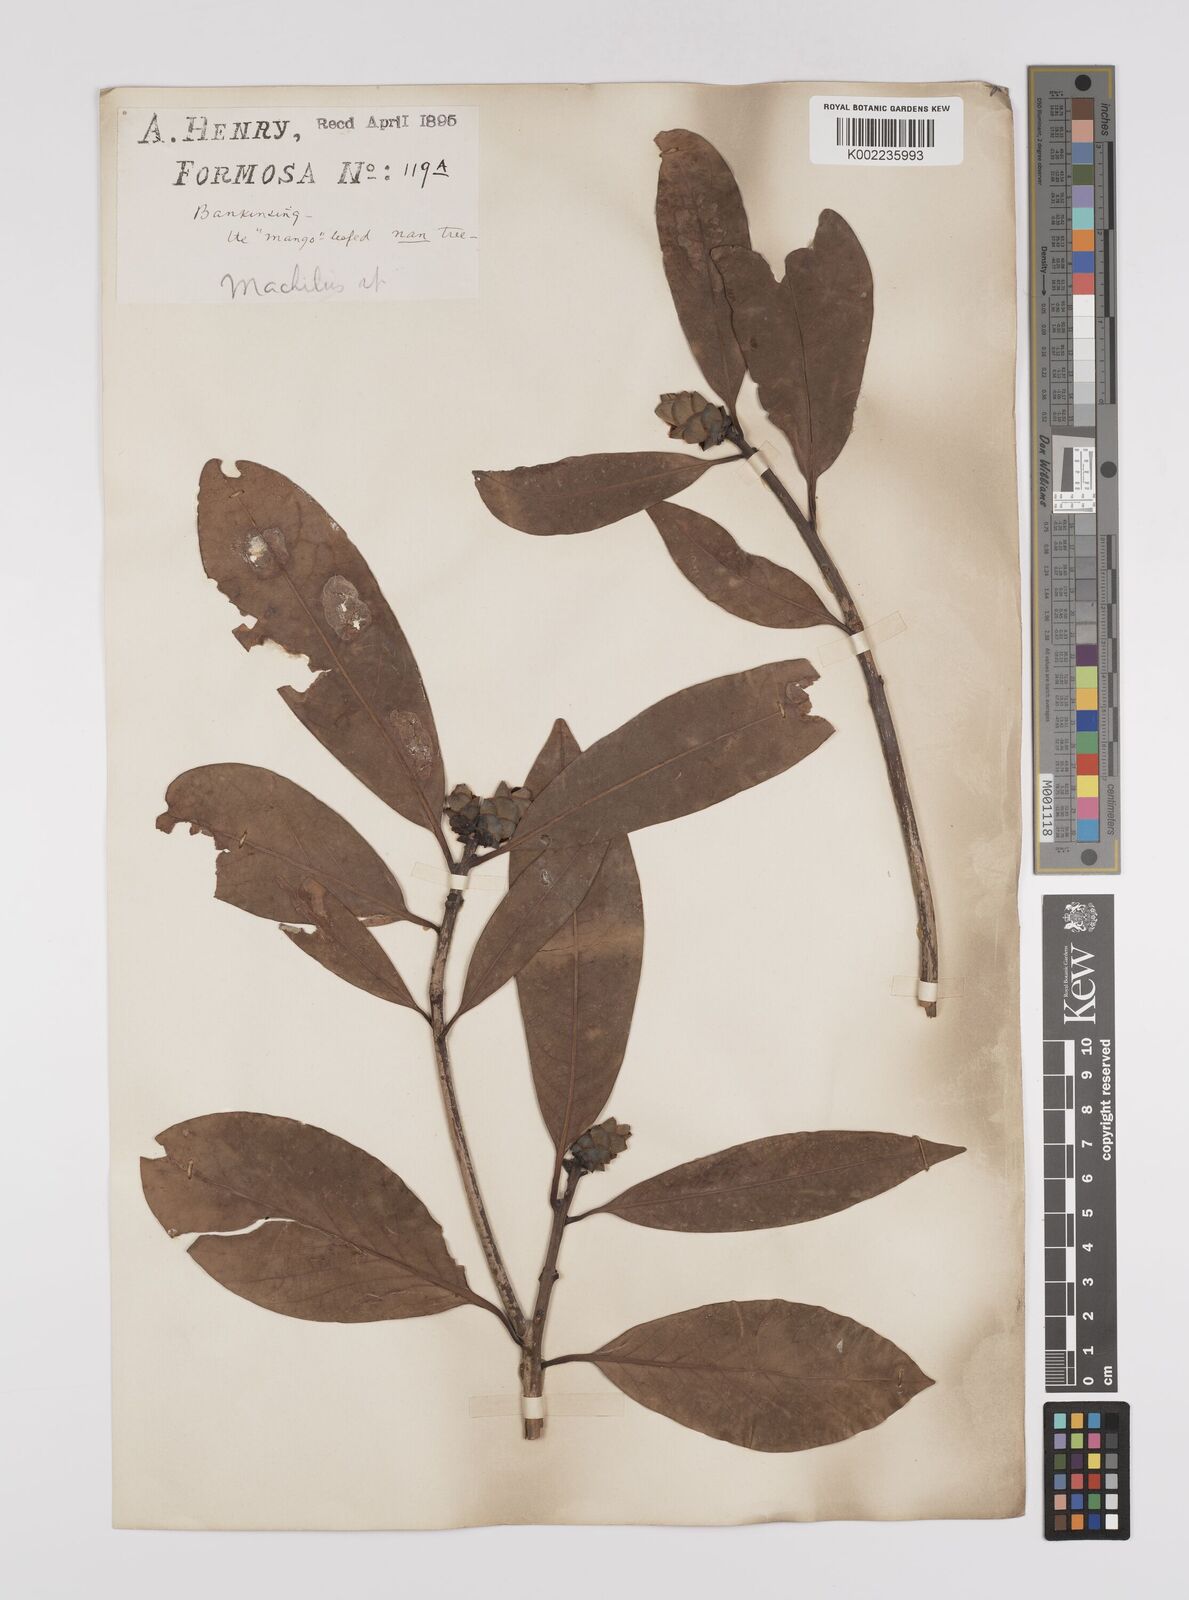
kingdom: Plantae
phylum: Tracheophyta
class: Magnoliopsida
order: Laurales
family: Lauraceae
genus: Persea
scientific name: Persea
